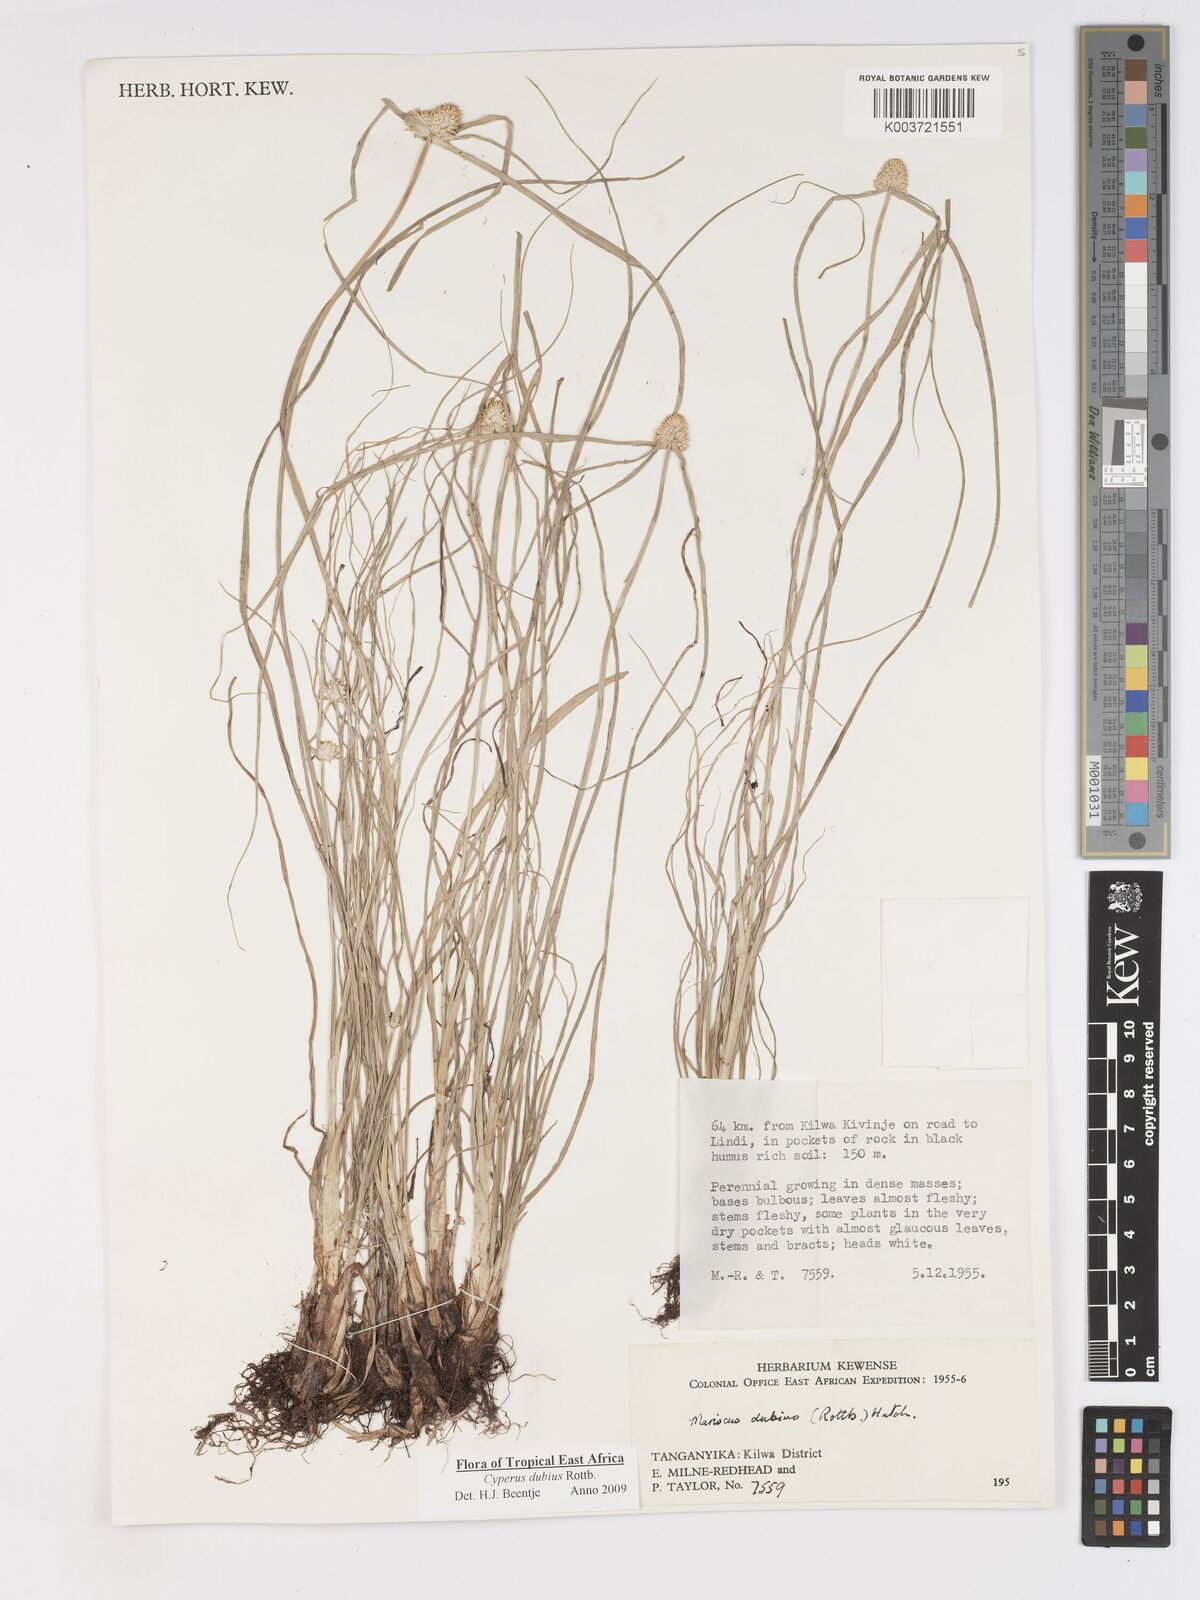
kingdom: Plantae
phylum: Tracheophyta
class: Liliopsida
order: Poales
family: Cyperaceae
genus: Cyperus
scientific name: Cyperus dubius
